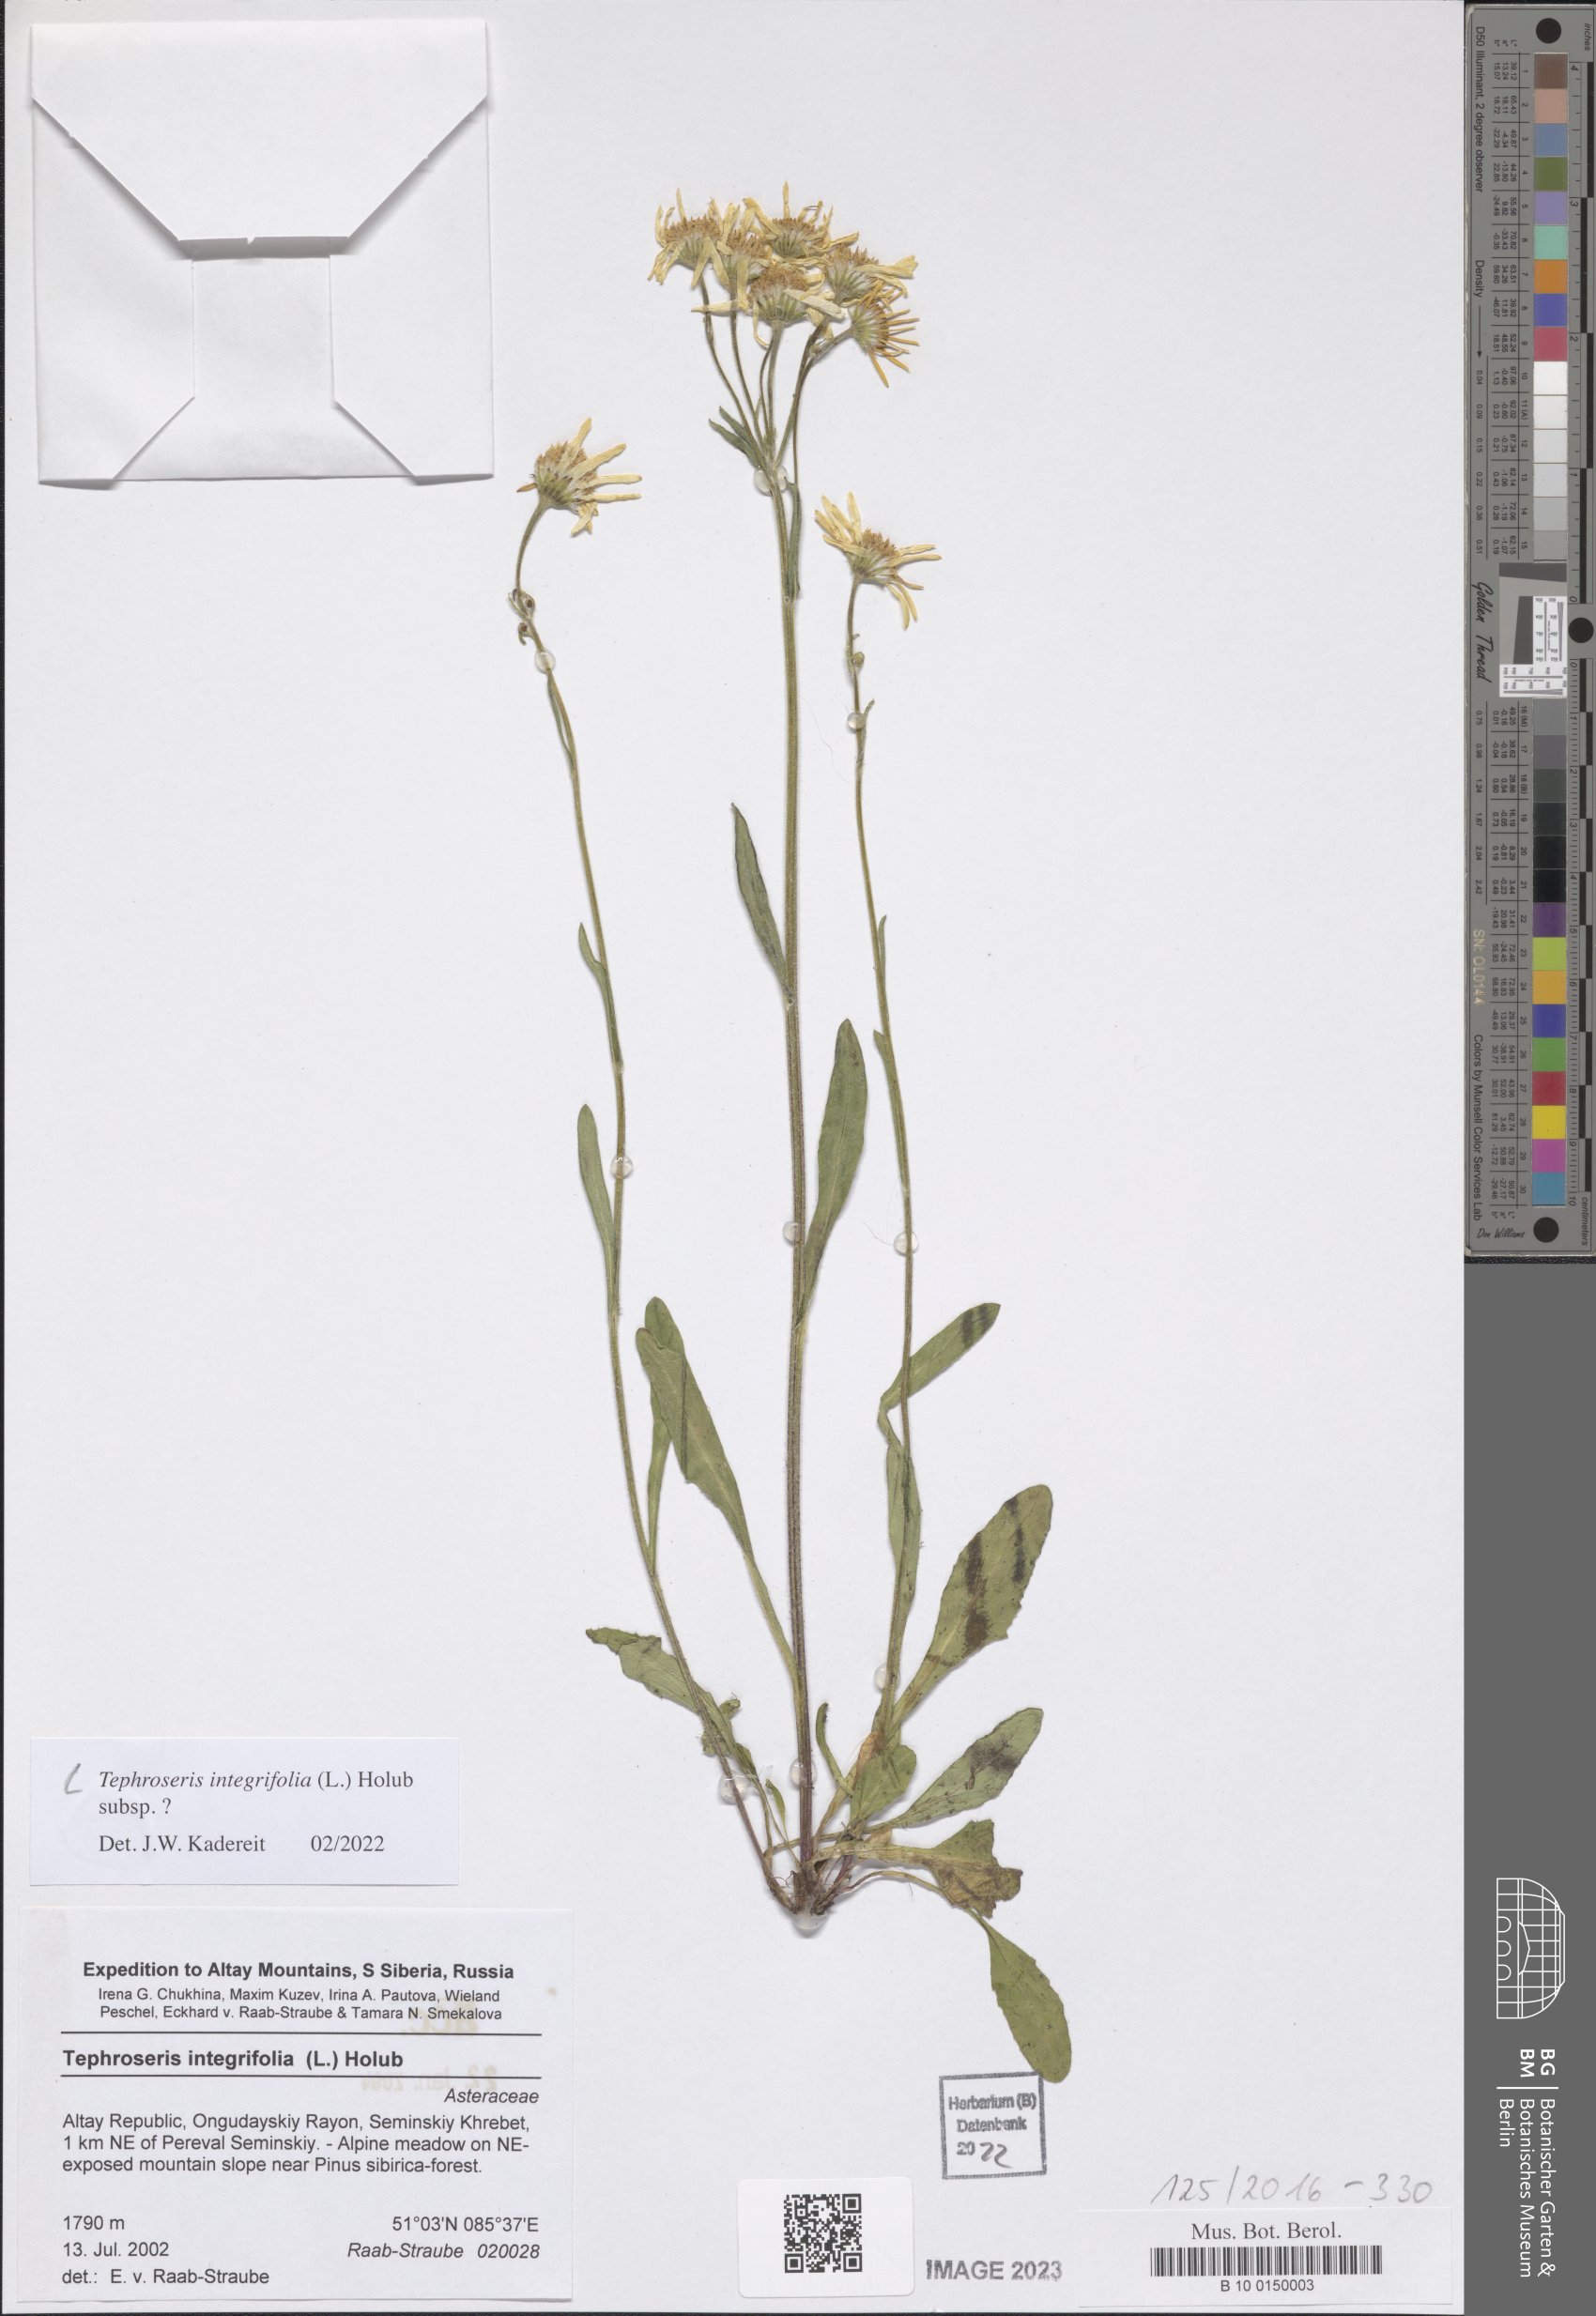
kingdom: Plantae
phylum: Tracheophyta
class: Magnoliopsida
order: Asterales
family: Asteraceae
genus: Tephroseris
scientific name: Tephroseris integrifolia
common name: Field fleawort
